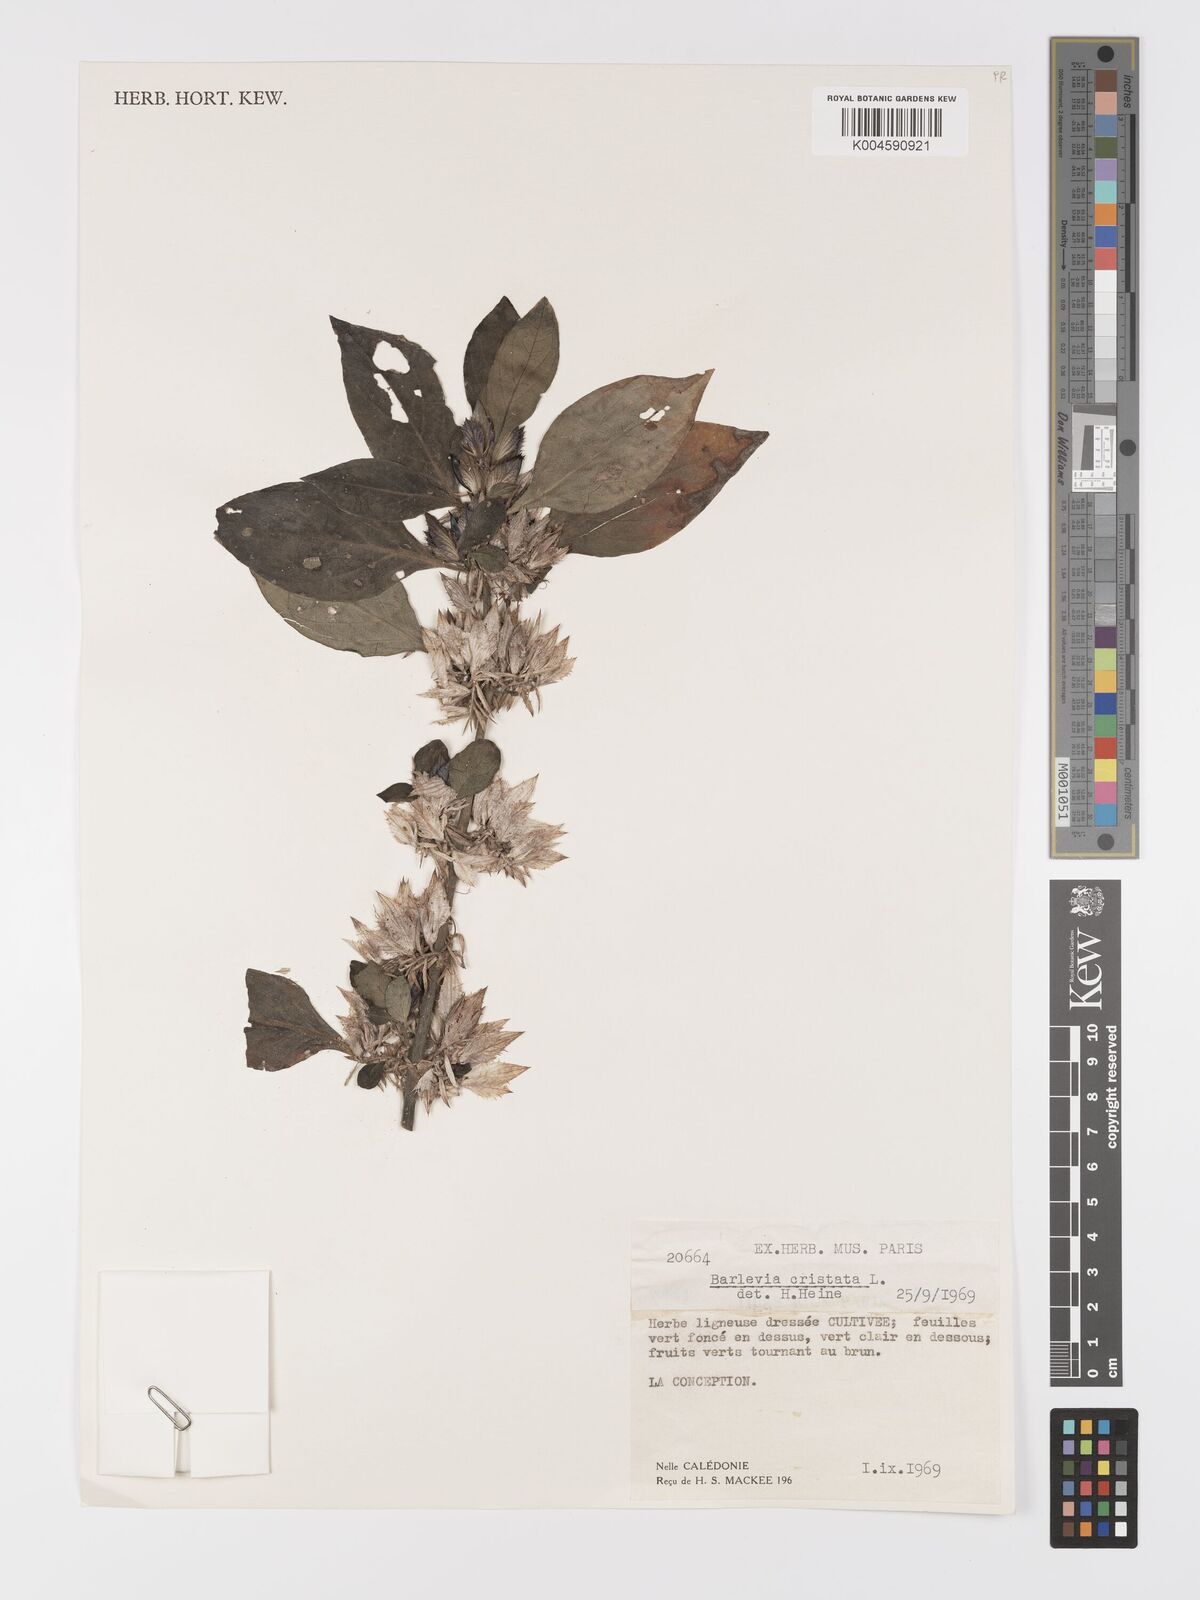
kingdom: Plantae
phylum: Tracheophyta
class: Magnoliopsida
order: Lamiales
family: Acanthaceae
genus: Barleria
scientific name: Barleria cristata
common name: Crested philippine violet
